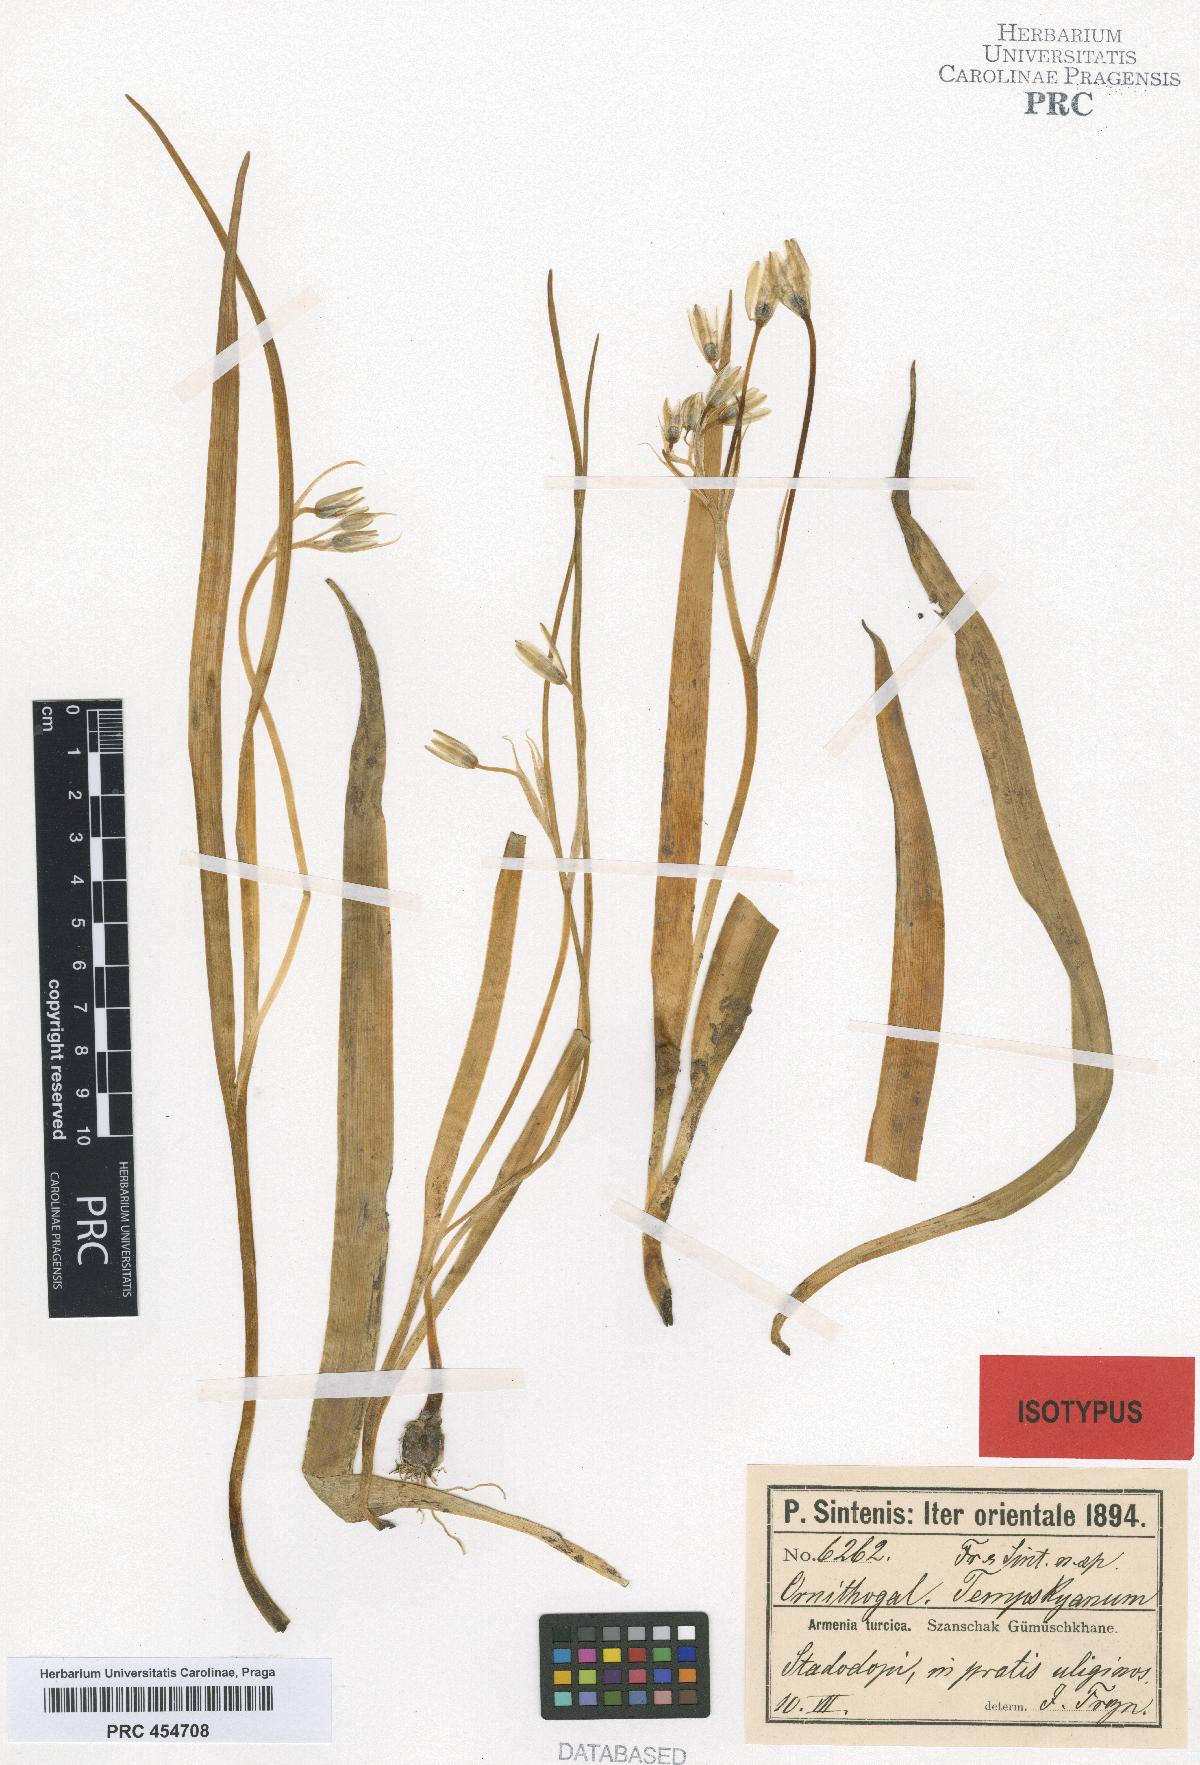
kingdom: Plantae
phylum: Tracheophyta
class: Liliopsida
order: Asparagales
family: Asparagaceae
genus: Ornithogalum
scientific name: Ornithogalum graciliflorum
